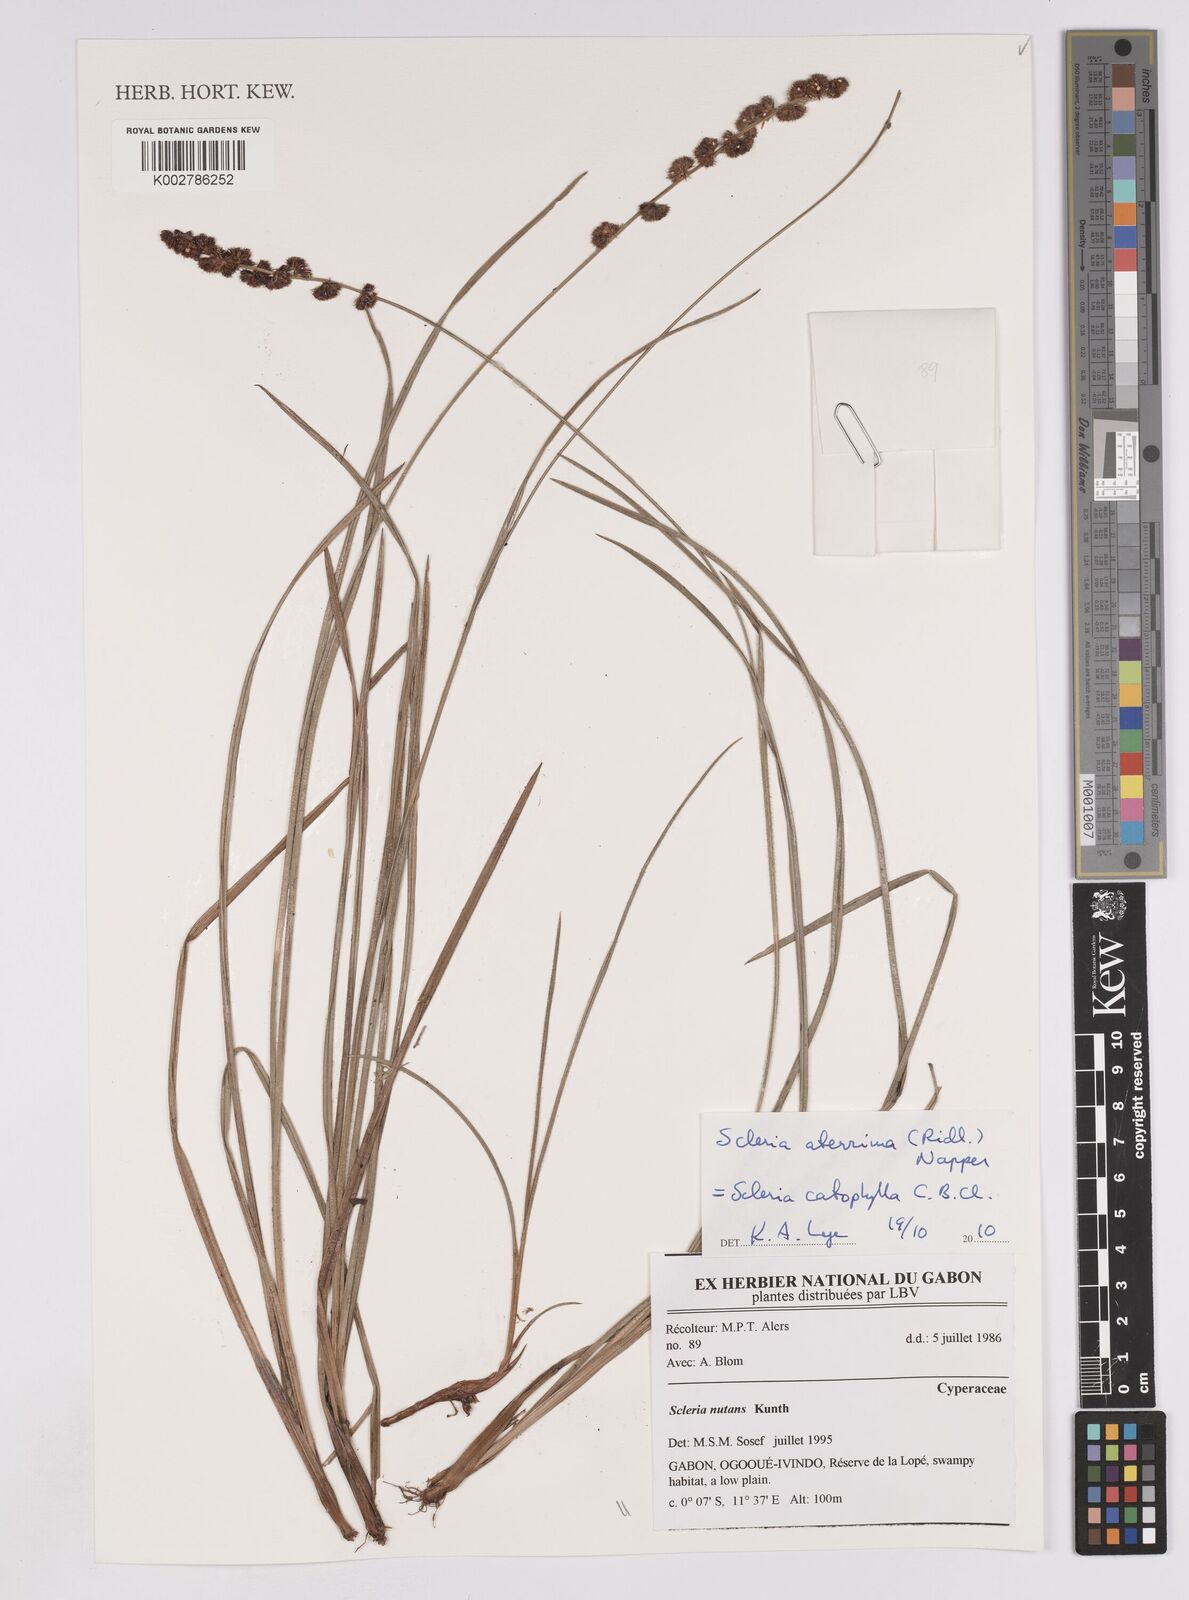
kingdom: Plantae
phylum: Tracheophyta
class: Liliopsida
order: Poales
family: Cyperaceae
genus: Scleria
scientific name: Scleria catophylla
